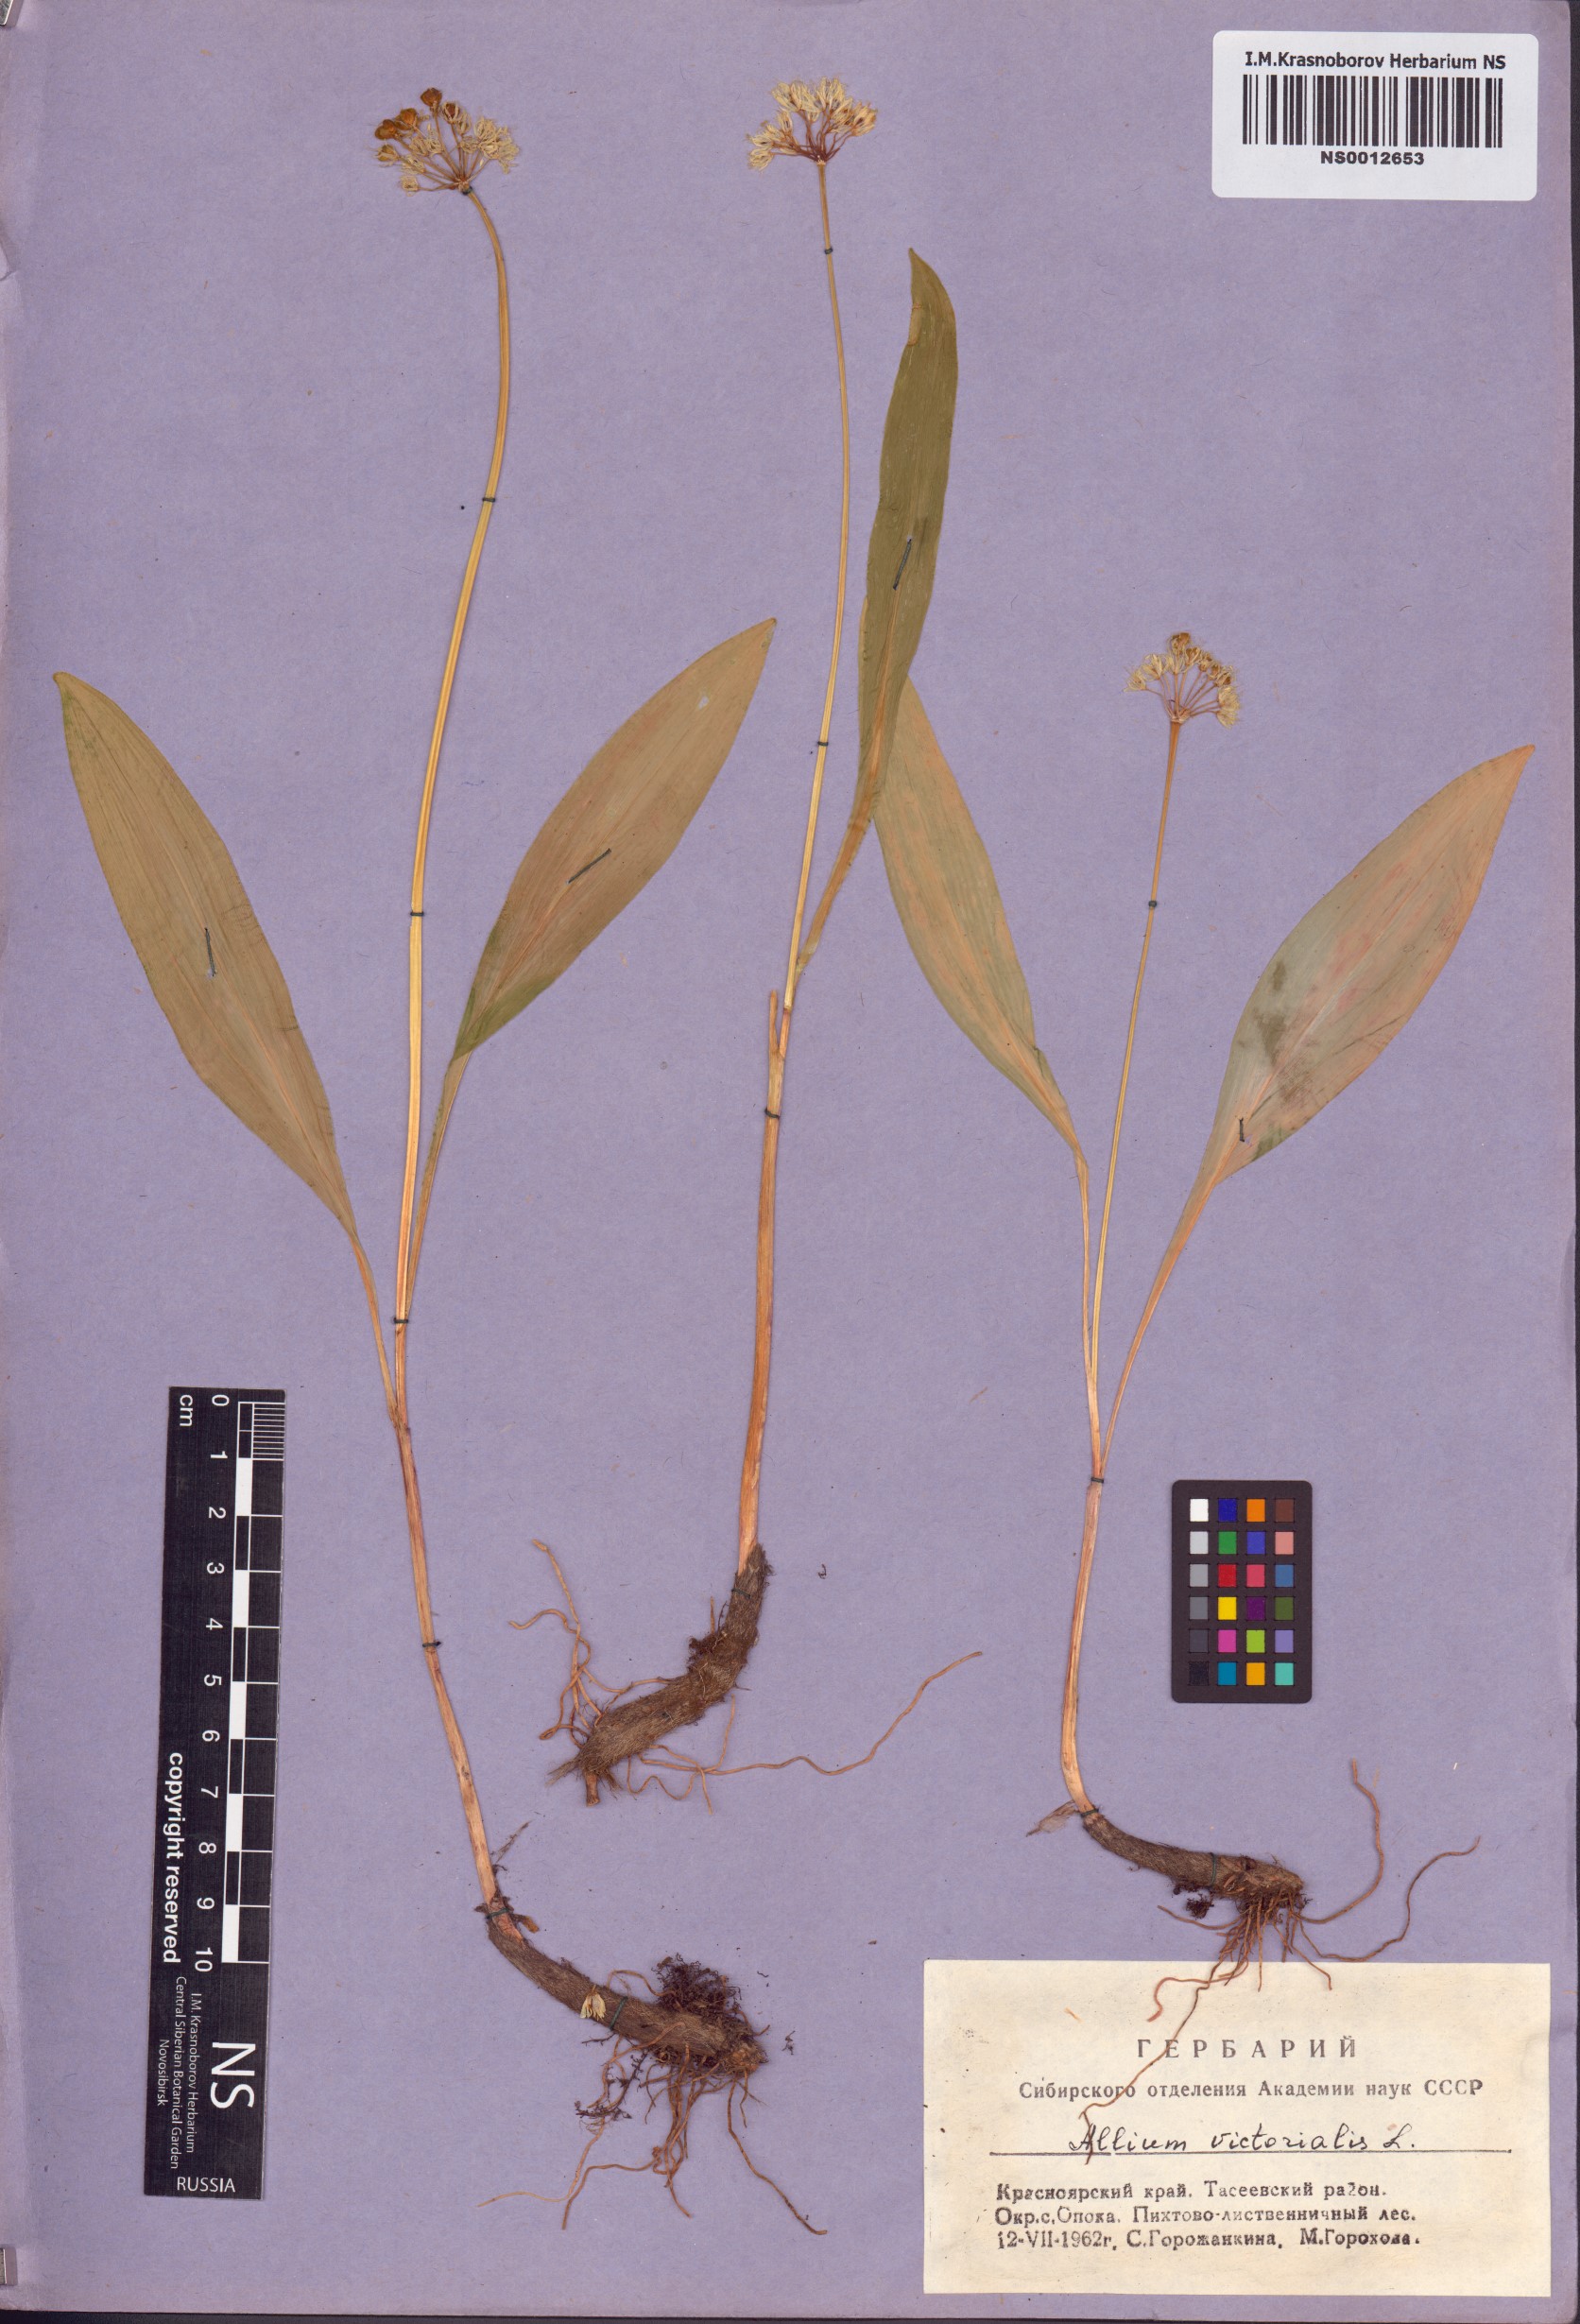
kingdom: Plantae
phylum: Tracheophyta
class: Liliopsida
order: Asparagales
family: Amaryllidaceae
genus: Allium
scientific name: Allium microdictyon
